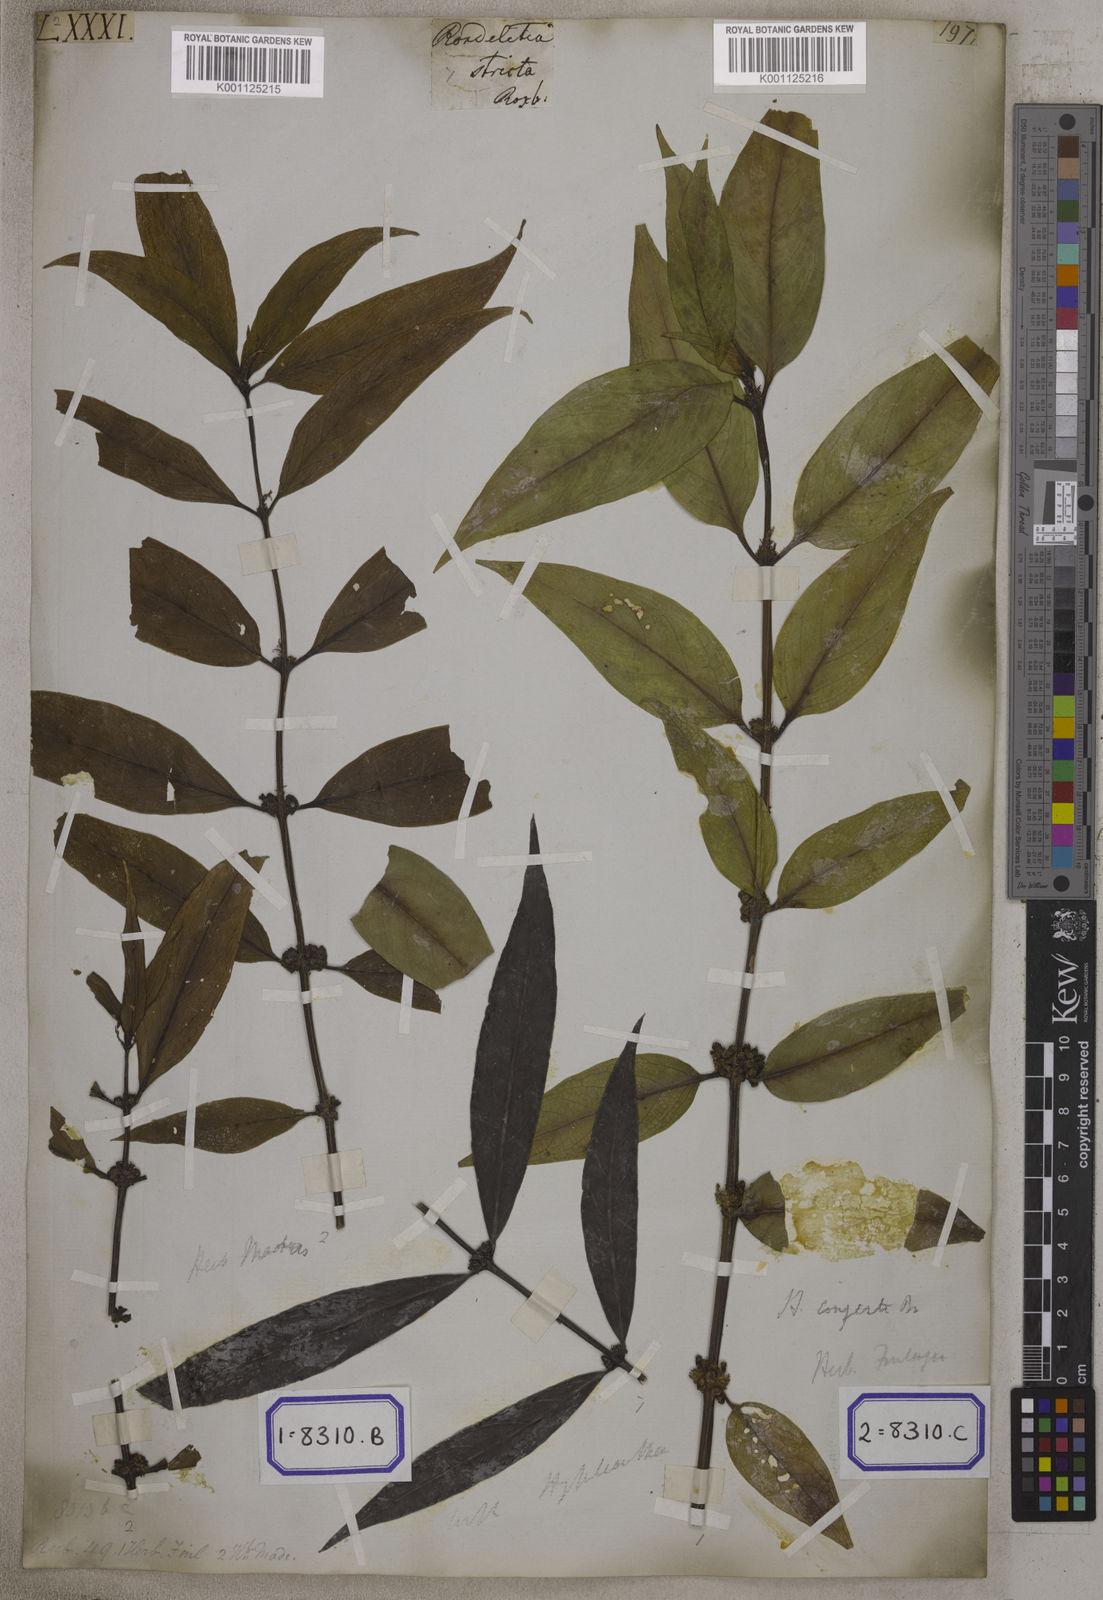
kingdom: Plantae
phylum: Tracheophyta
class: Magnoliopsida
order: Gentianales
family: Rubiaceae
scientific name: Rubiaceae
